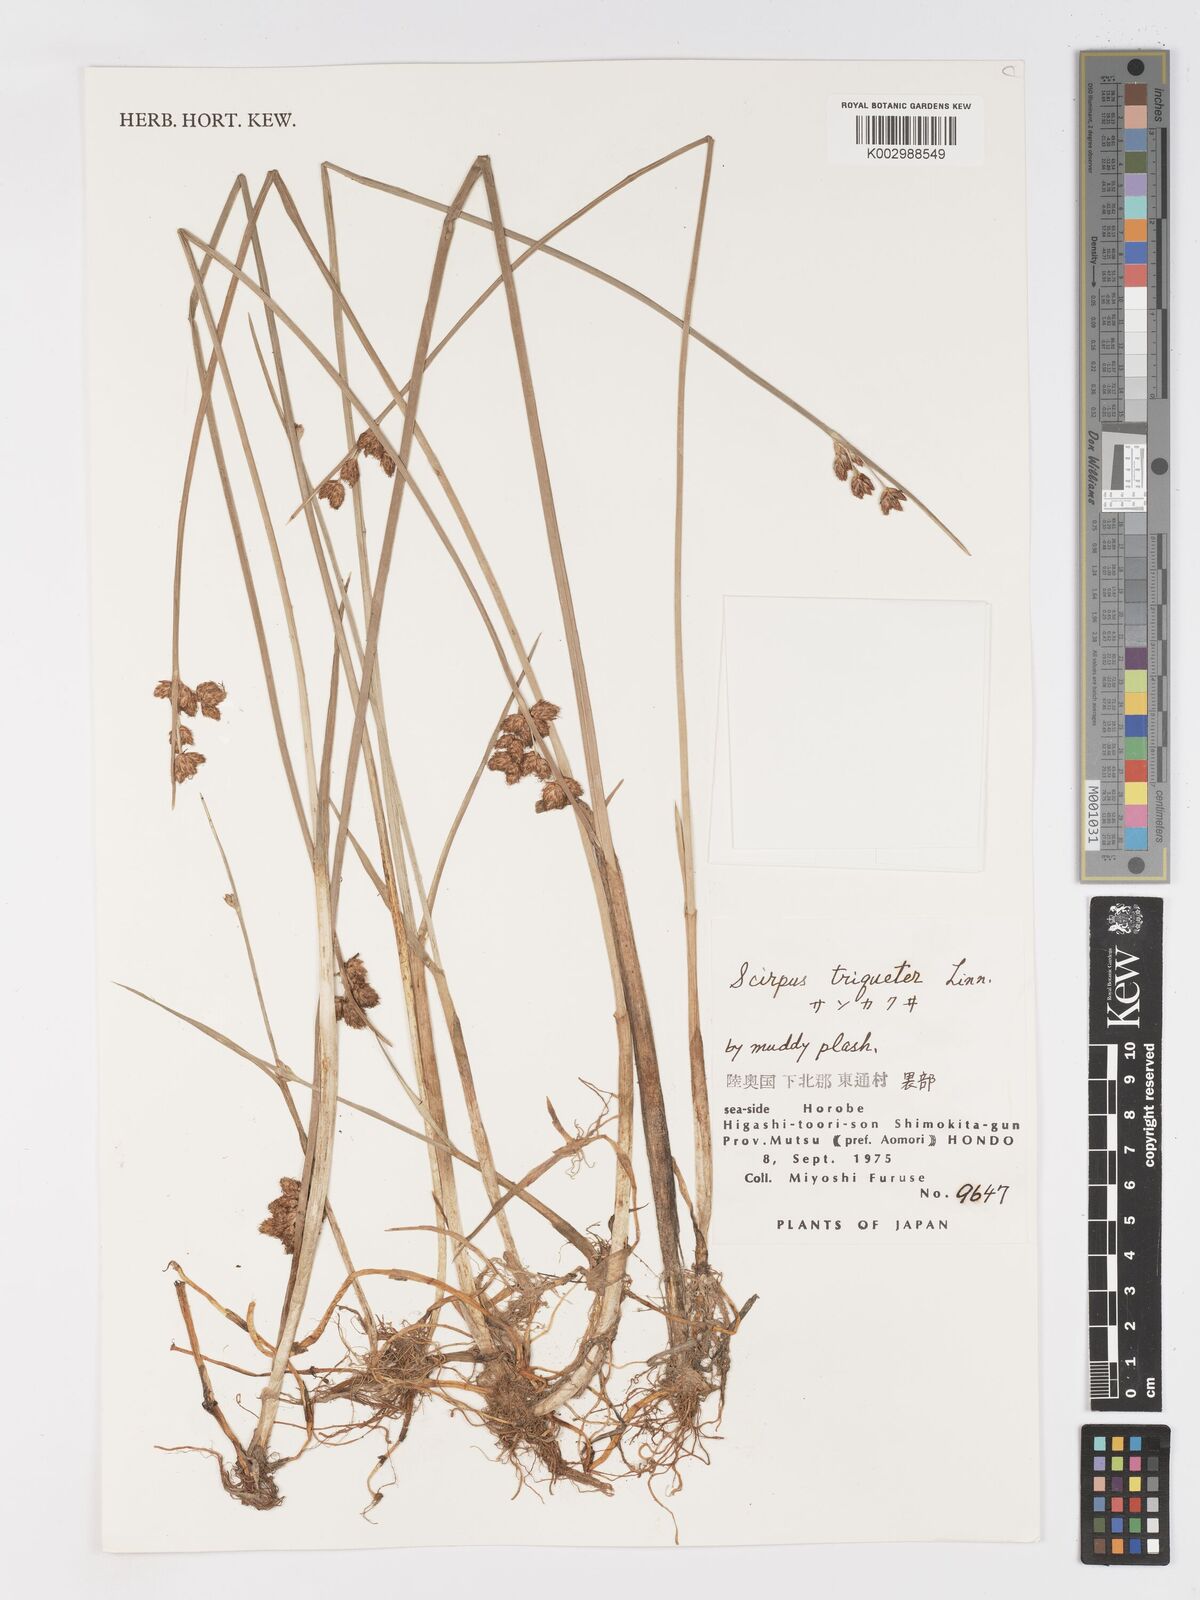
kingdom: Plantae
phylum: Tracheophyta
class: Liliopsida
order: Poales
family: Cyperaceae
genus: Schoenoplectus
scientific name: Schoenoplectus triqueter
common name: Triangular club-rush
